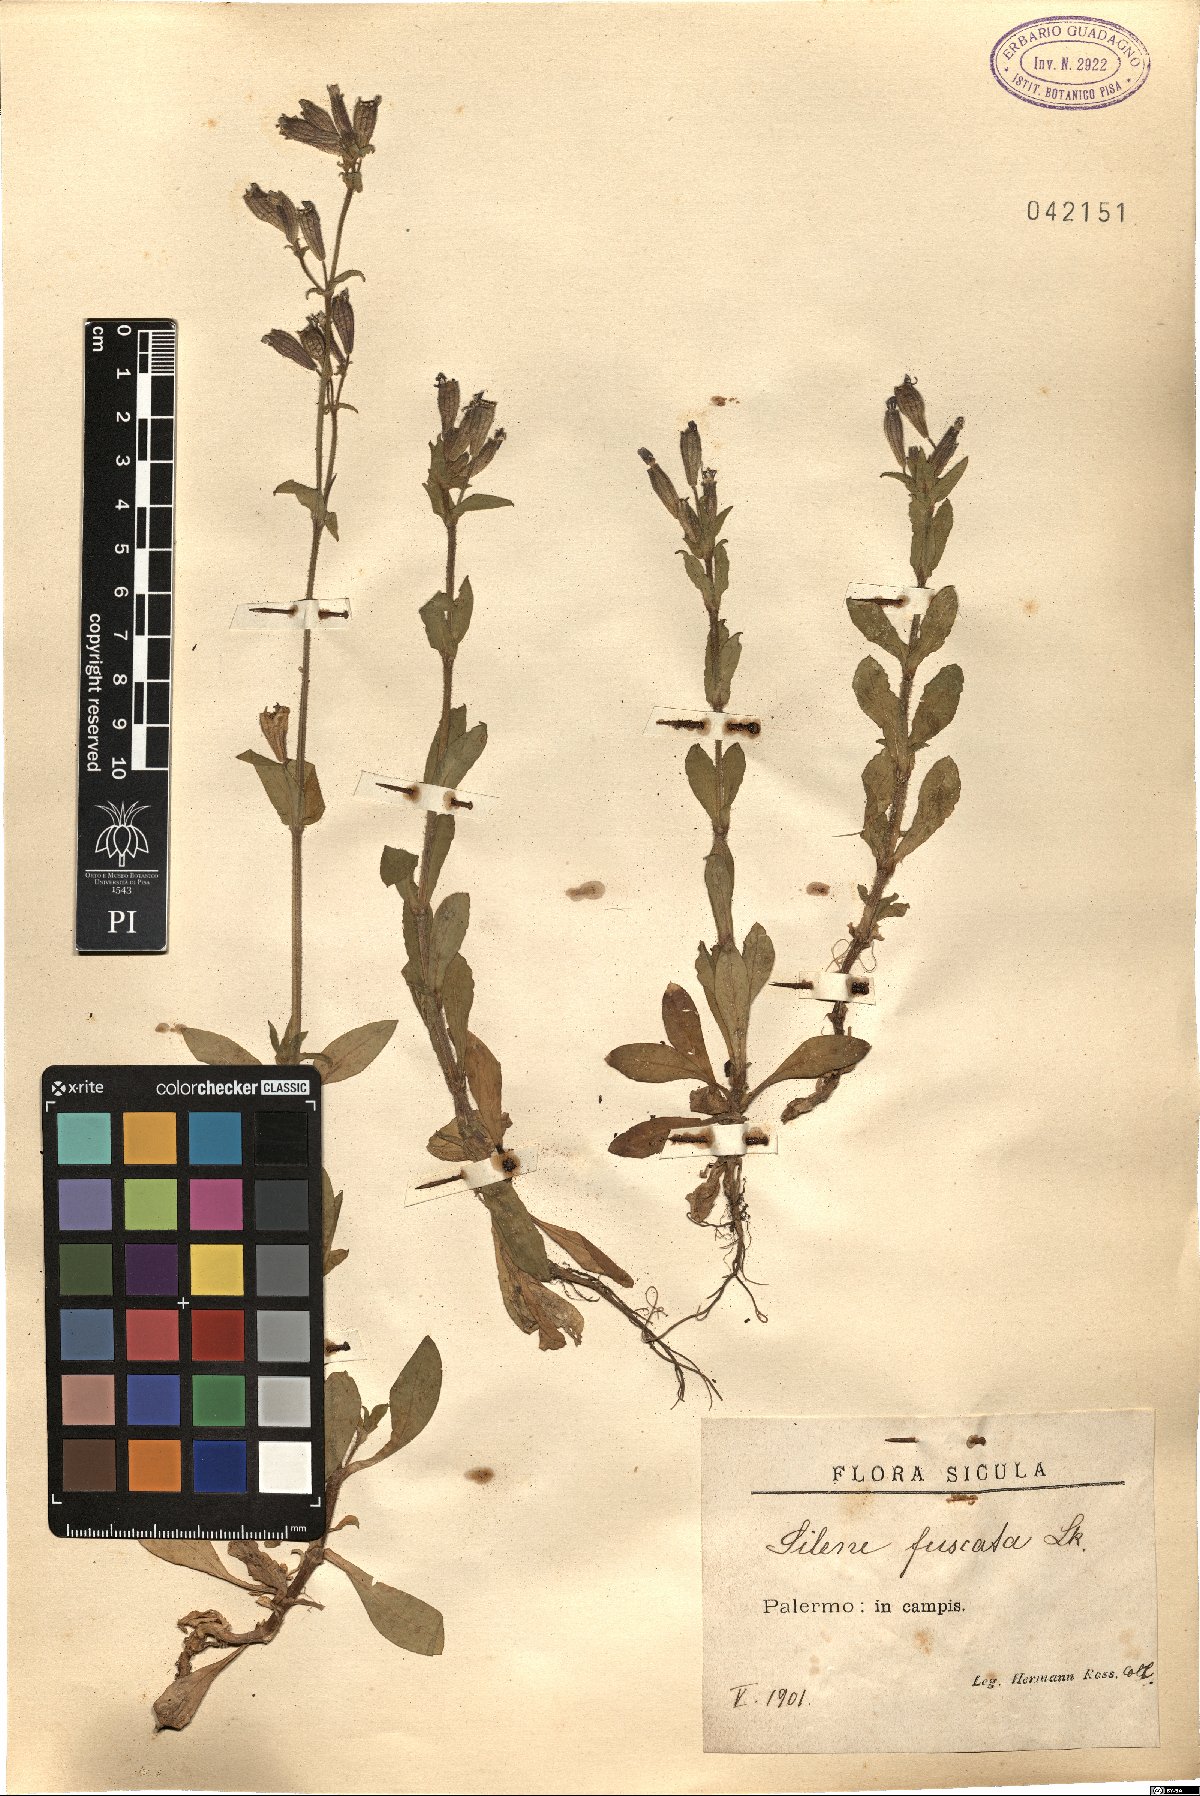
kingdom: Plantae
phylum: Tracheophyta
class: Magnoliopsida
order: Caryophyllales
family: Caryophyllaceae
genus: Silene
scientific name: Silene fuscata
